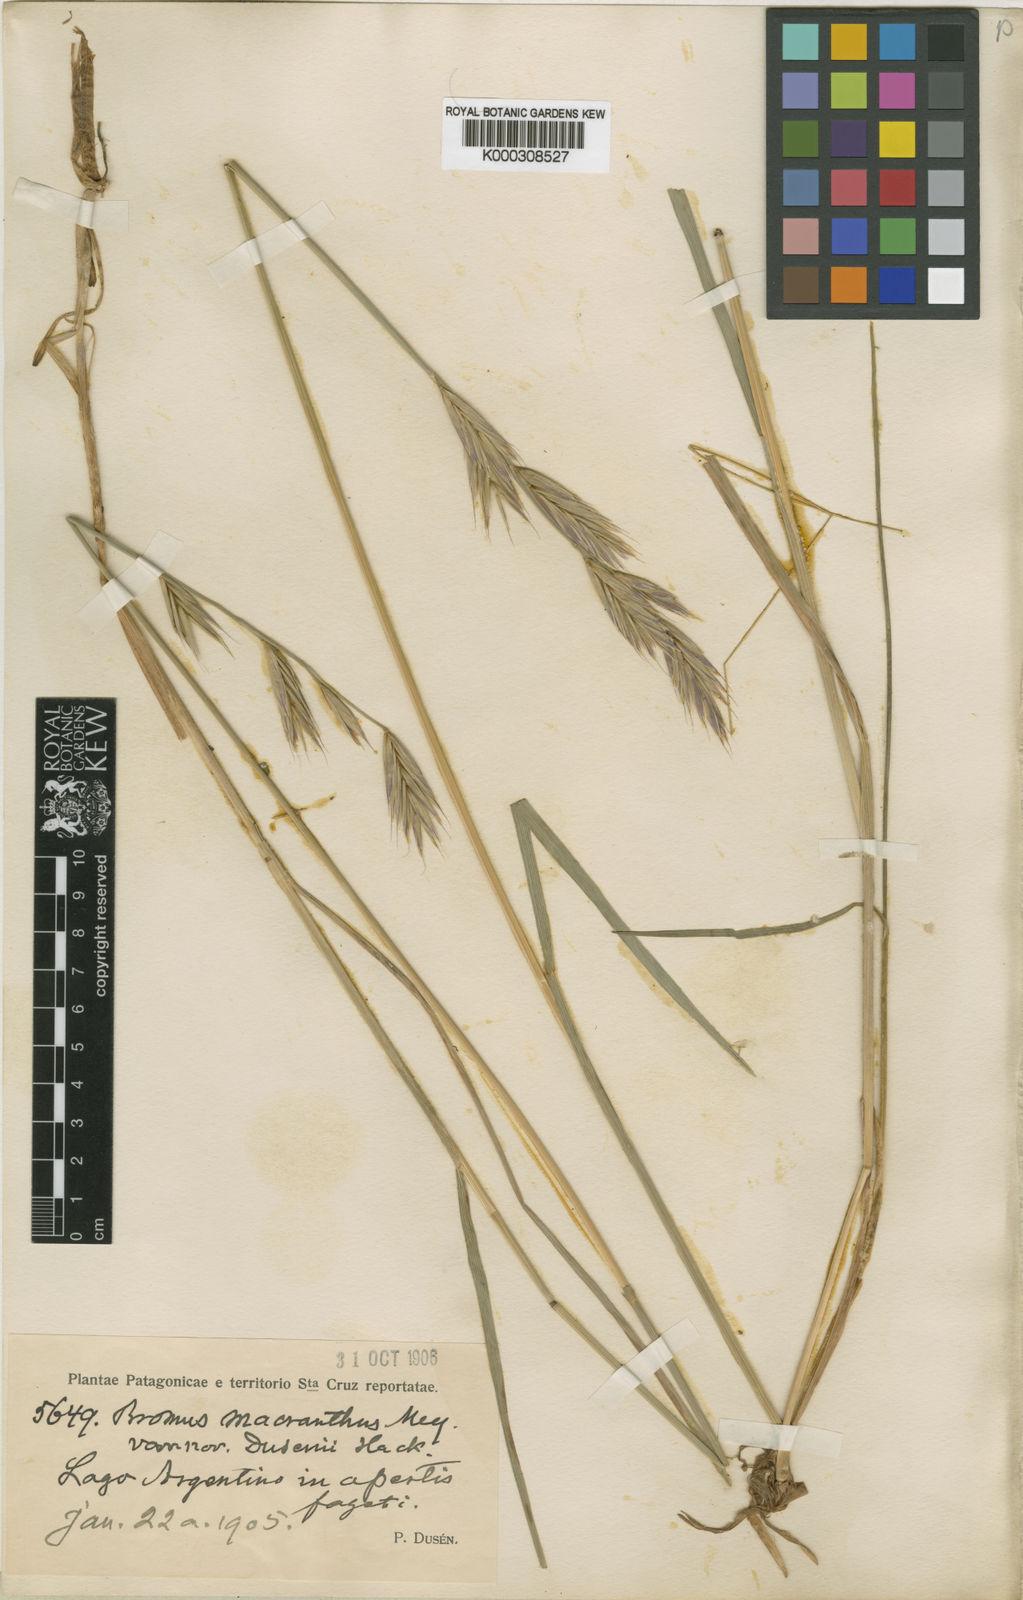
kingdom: Plantae
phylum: Tracheophyta
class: Liliopsida
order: Poales
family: Poaceae
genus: Bromus
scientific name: Bromus setifolius
